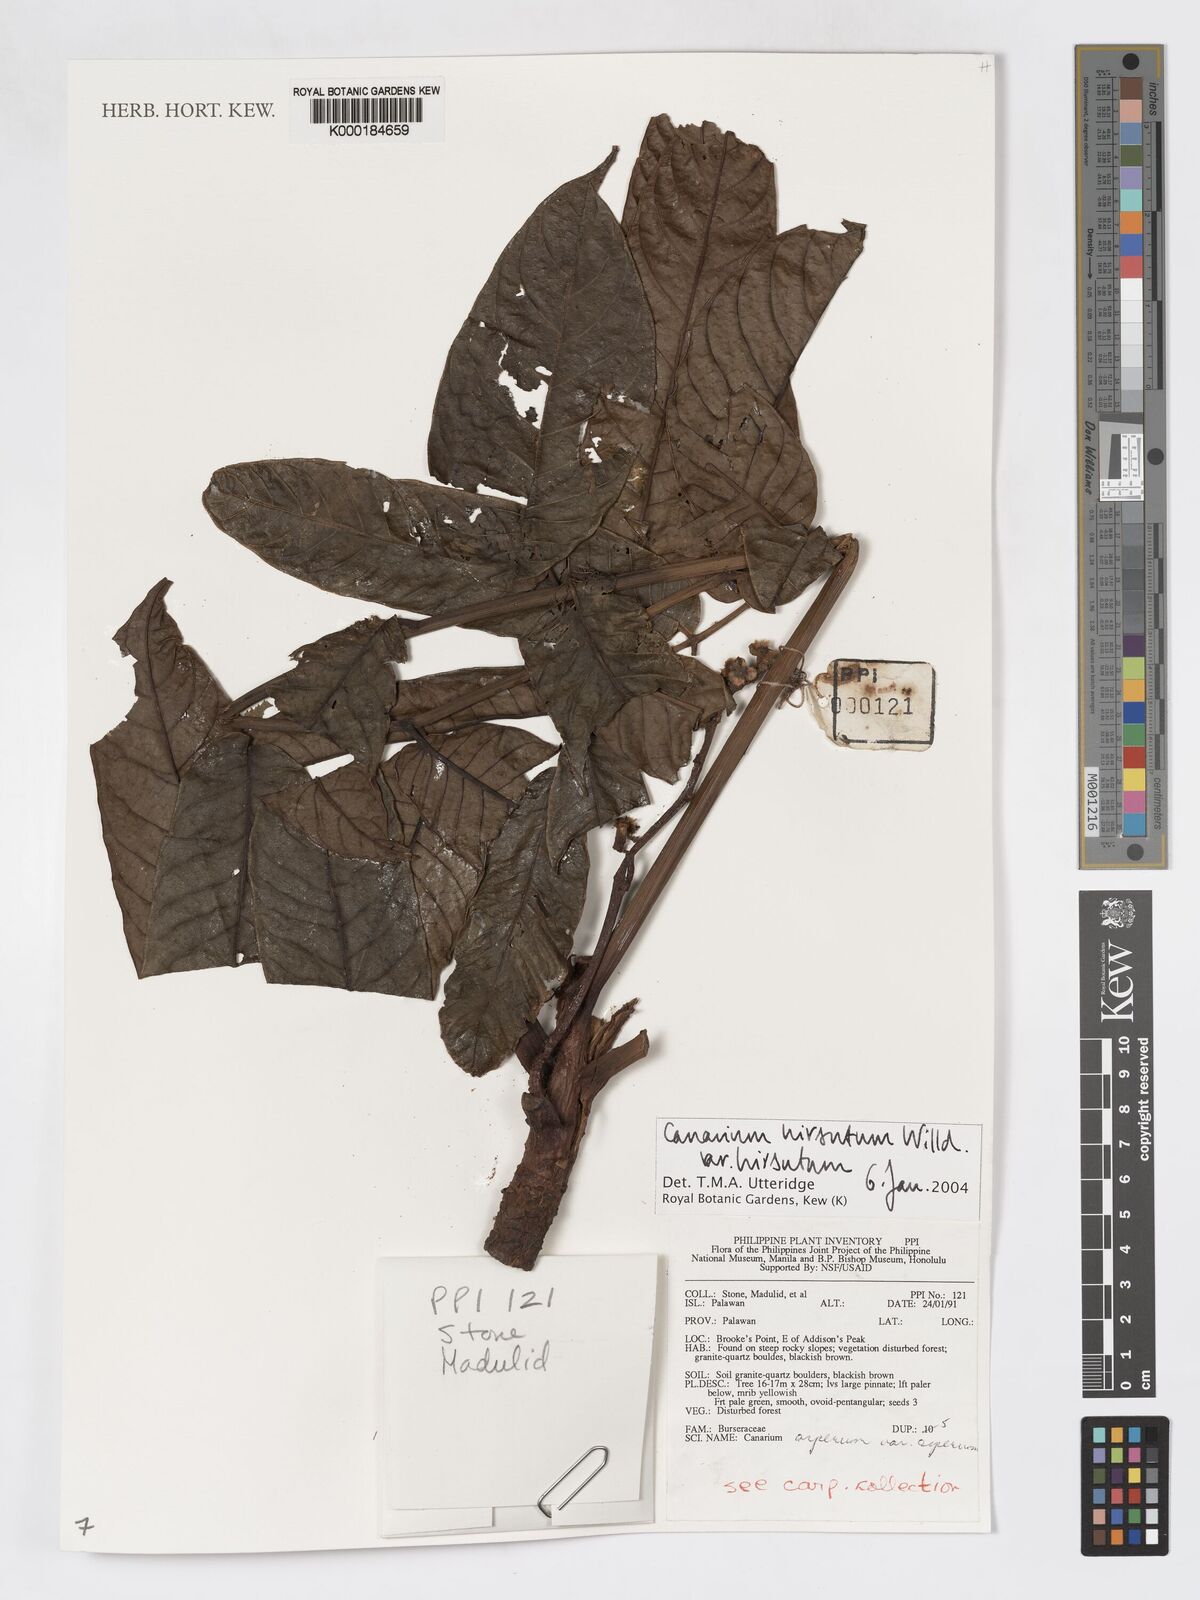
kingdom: Plantae
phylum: Tracheophyta
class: Magnoliopsida
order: Sapindales
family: Burseraceae
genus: Canarium
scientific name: Canarium hirsutum
